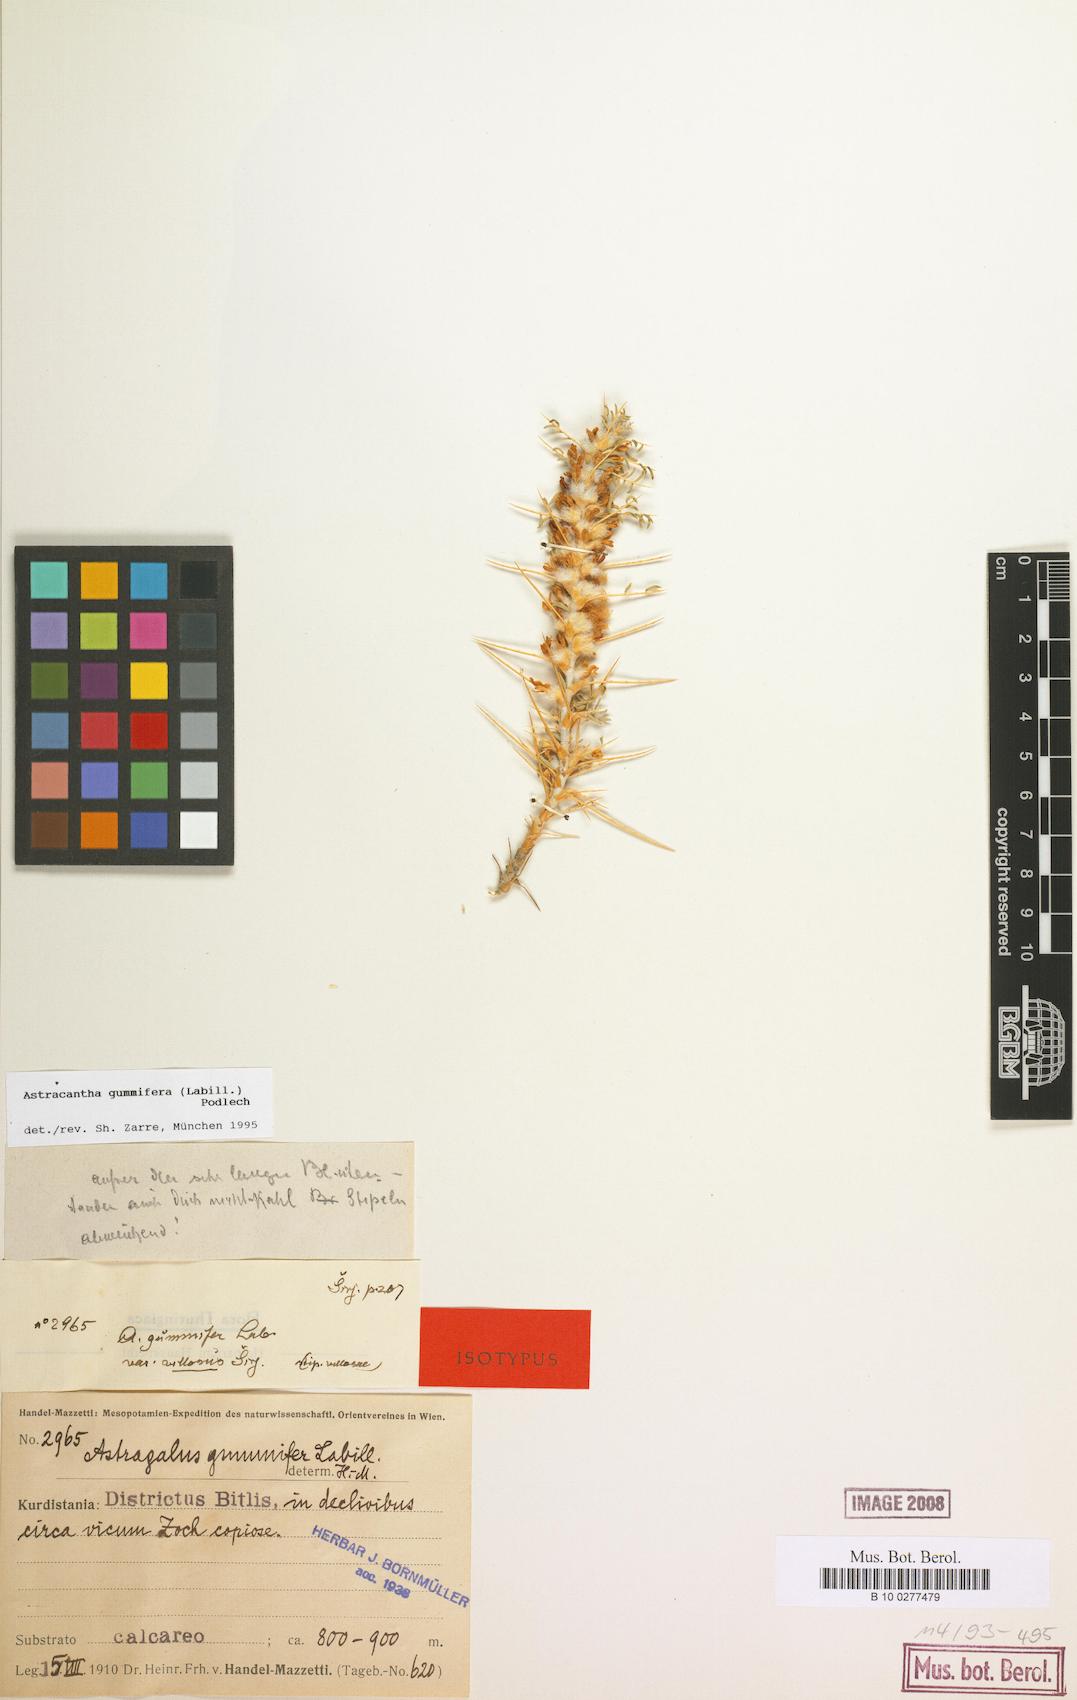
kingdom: Plantae
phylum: Tracheophyta
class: Magnoliopsida
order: Fabales
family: Fabaceae
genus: Astragalus
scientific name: Astragalus gummifer
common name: Tragacanth
